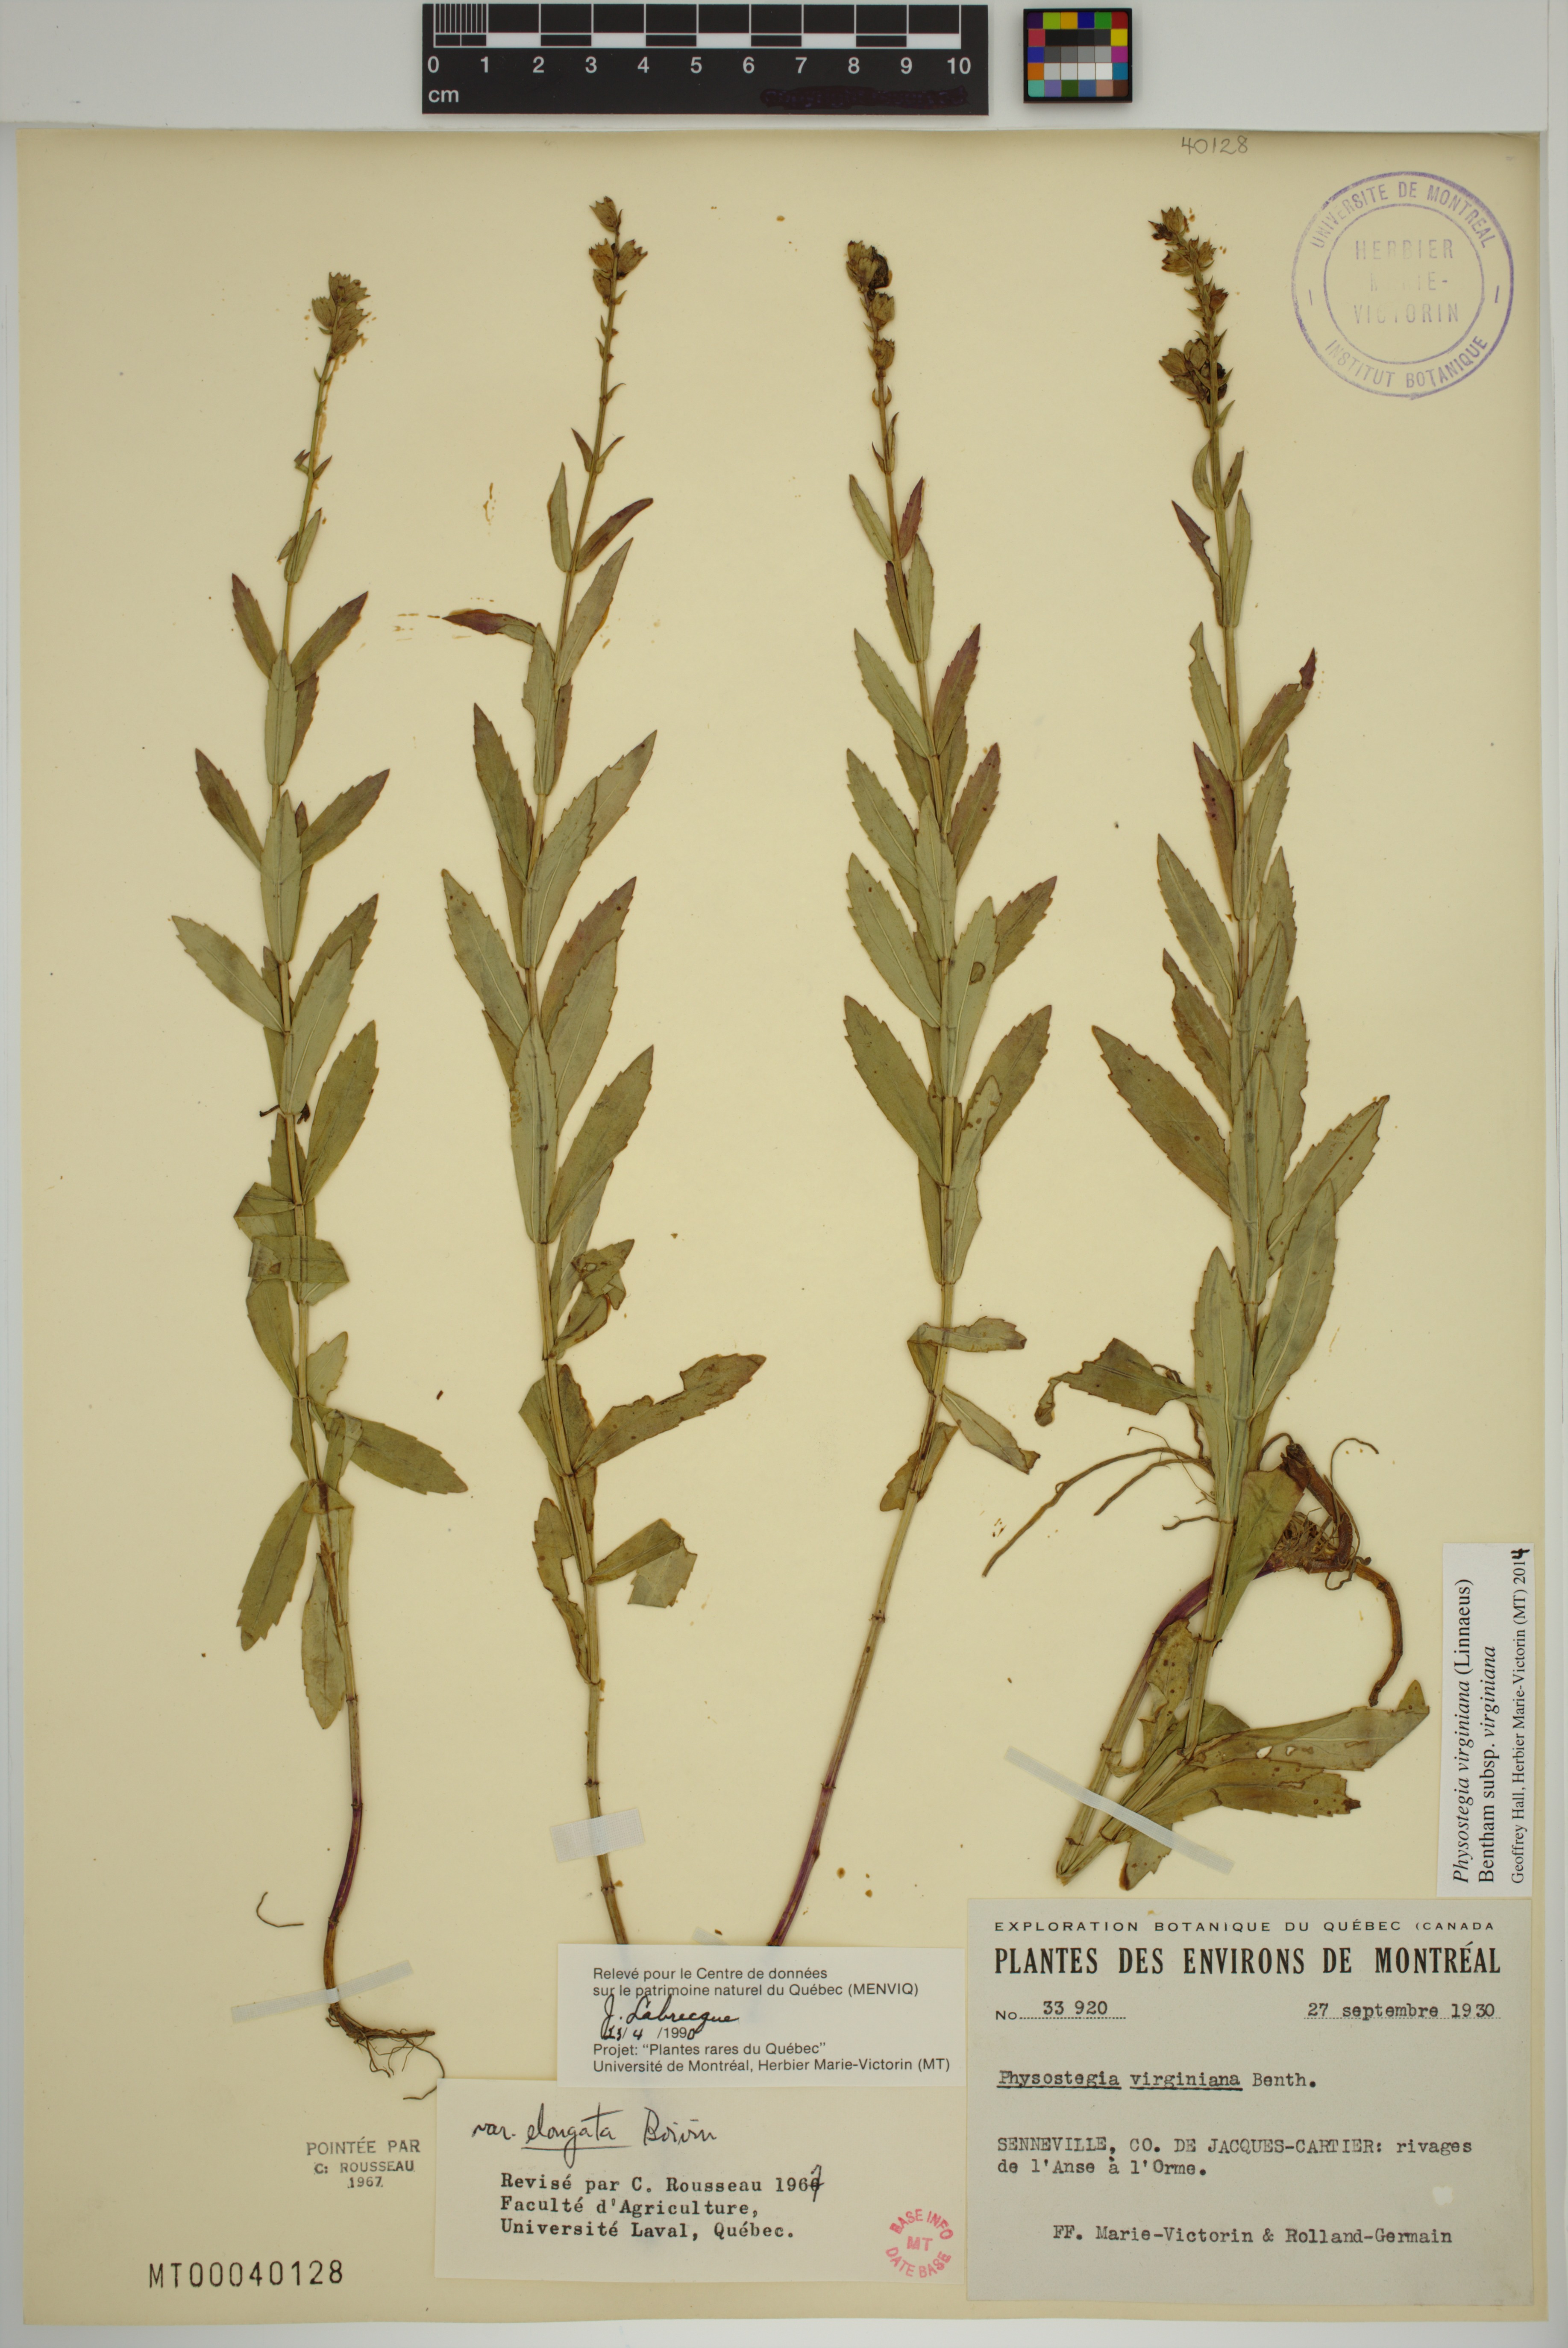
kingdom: Plantae
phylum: Tracheophyta
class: Magnoliopsida
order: Lamiales
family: Lamiaceae
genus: Physostegia
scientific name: Physostegia virginiana
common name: Obedient-plant
